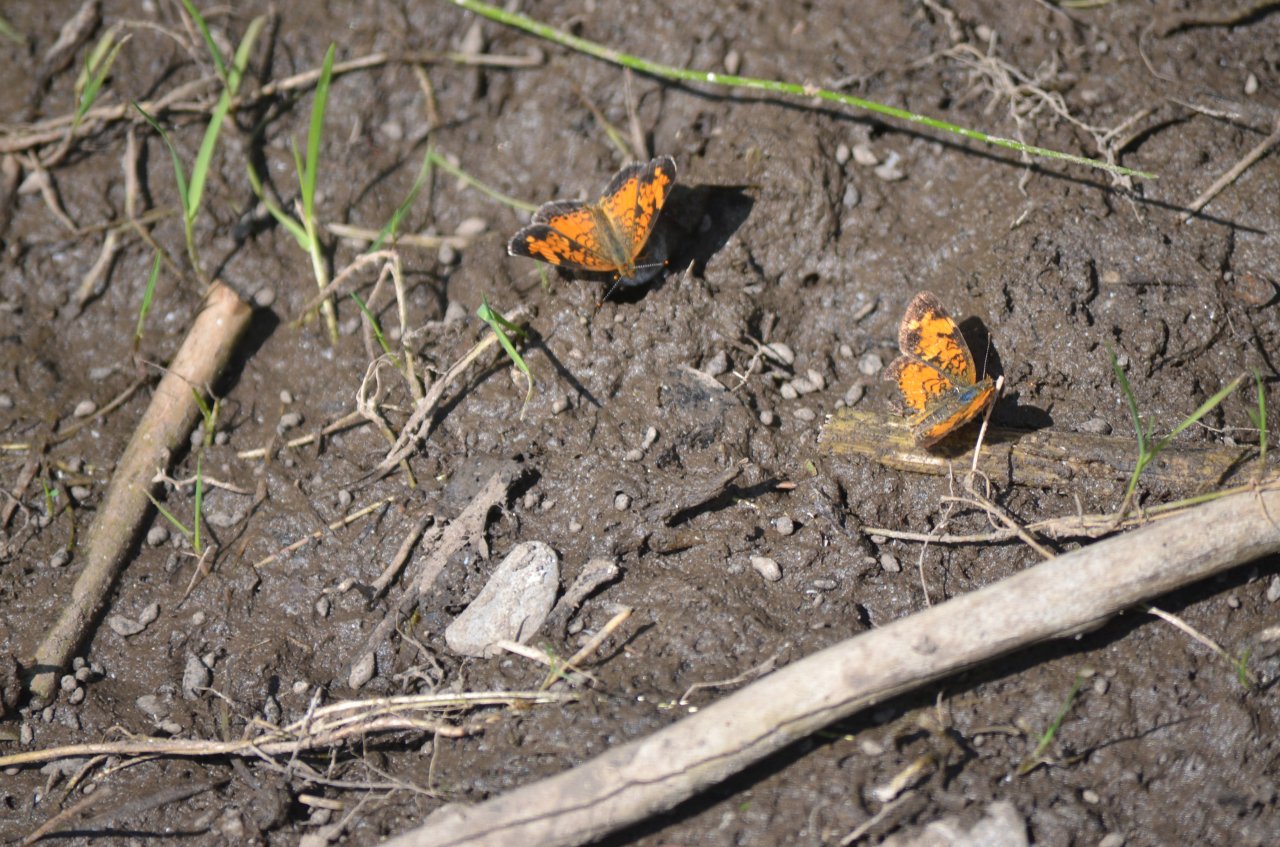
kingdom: Animalia
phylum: Arthropoda
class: Insecta
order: Lepidoptera
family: Nymphalidae
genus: Phyciodes
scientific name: Phyciodes tharos
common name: Northern Crescent
